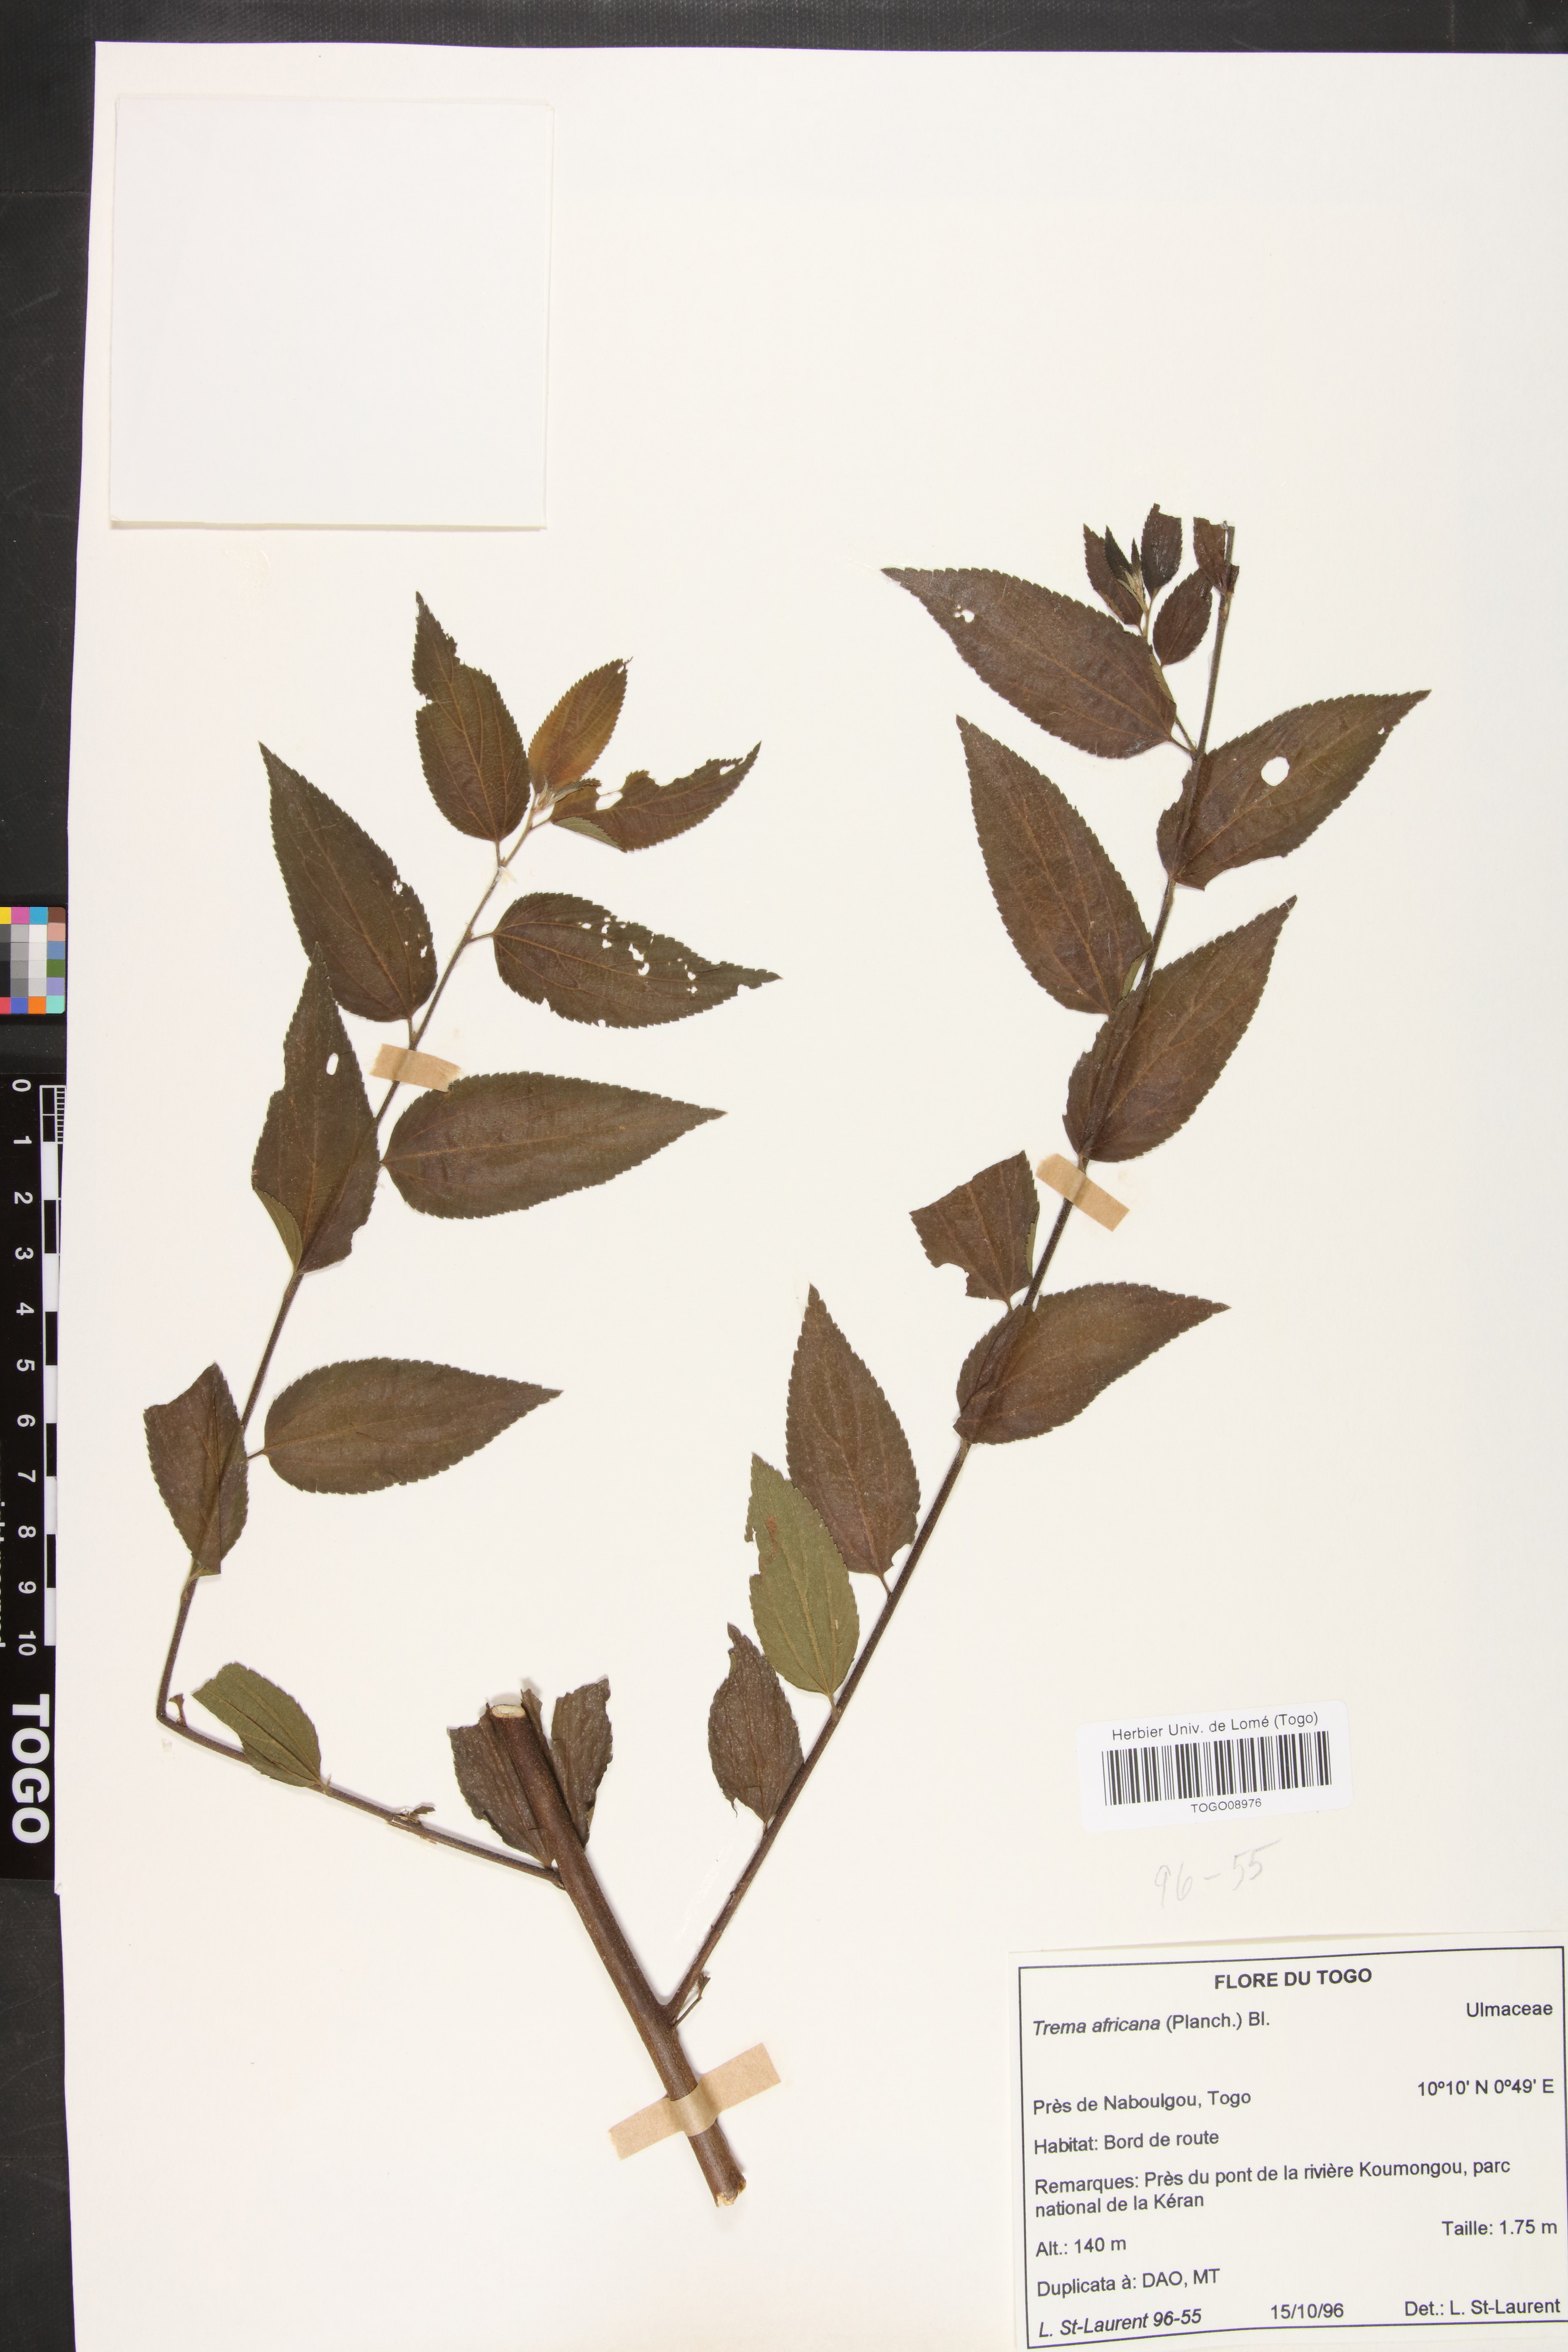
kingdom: Plantae
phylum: Tracheophyta
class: Magnoliopsida
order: Rosales
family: Cannabaceae
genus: Trema
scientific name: Trema orientale
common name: Indian charcoal tree
